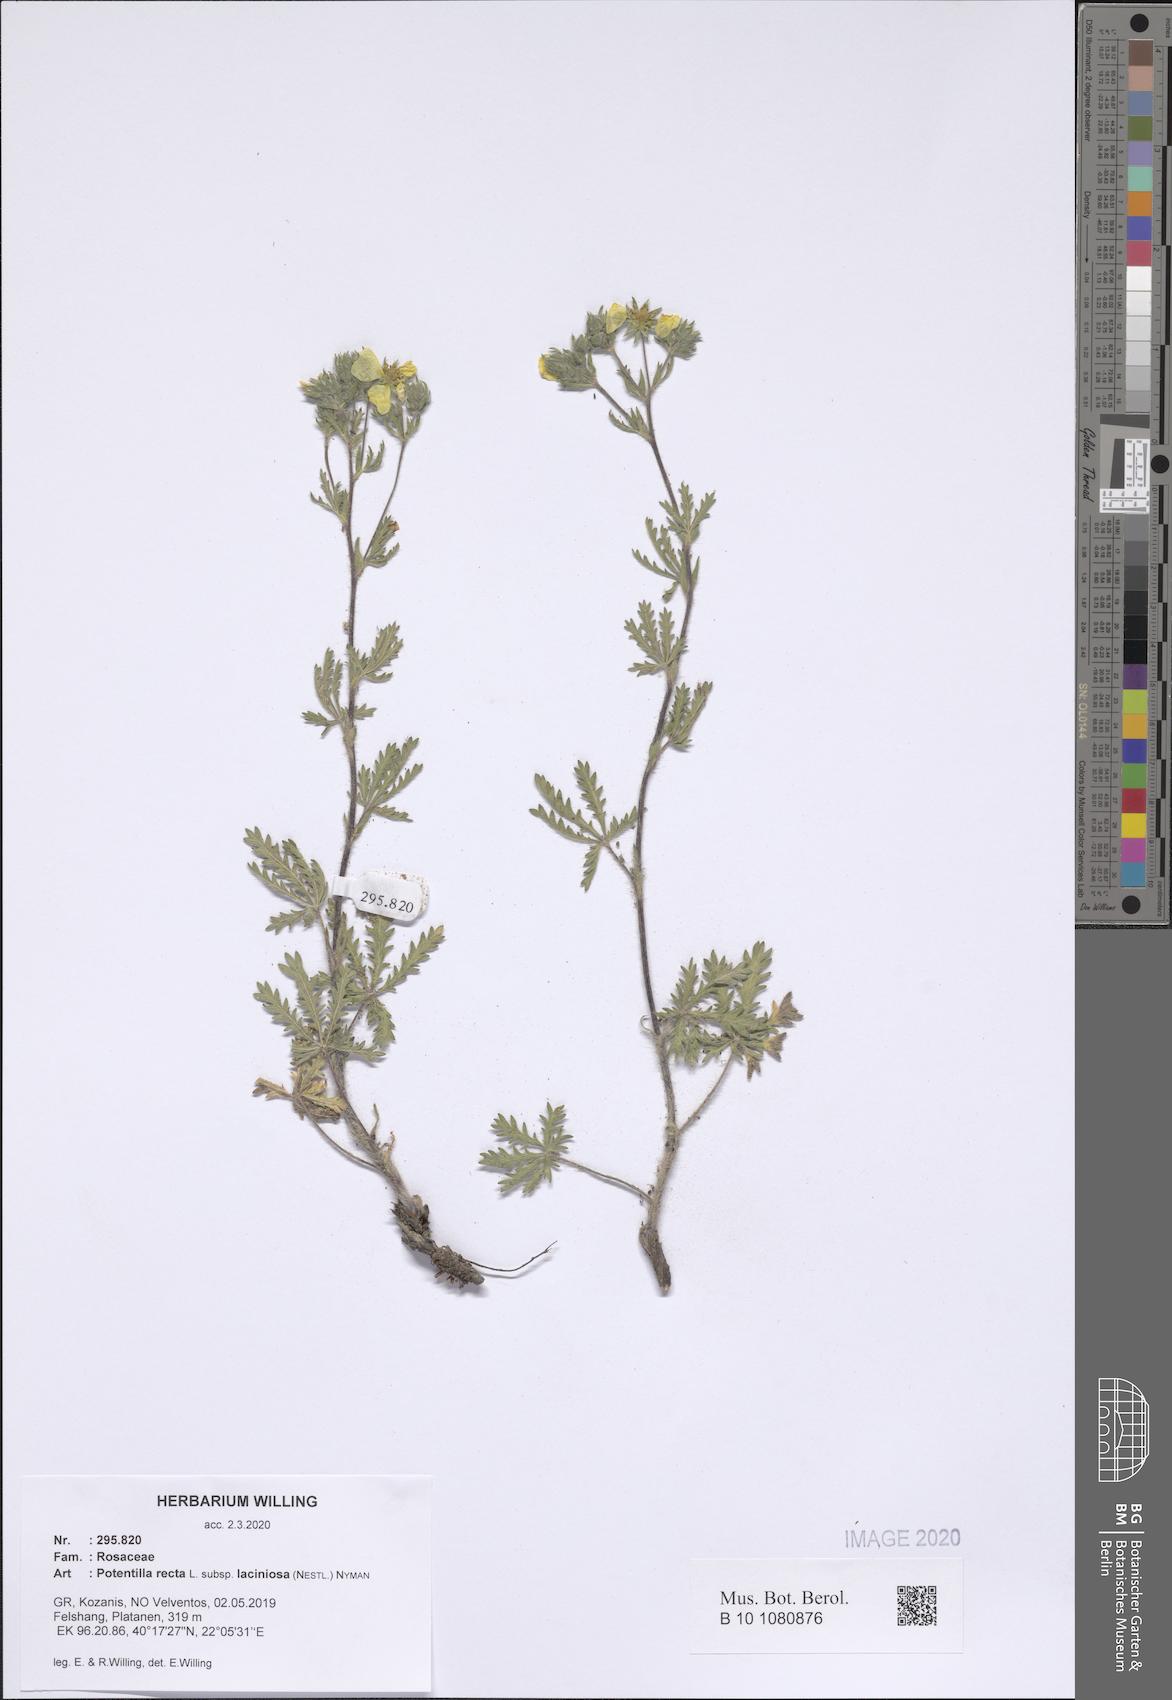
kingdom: Plantae
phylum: Tracheophyta
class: Magnoliopsida
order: Rosales
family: Rosaceae
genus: Potentilla
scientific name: Potentilla recta
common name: Sulphur cinquefoil
